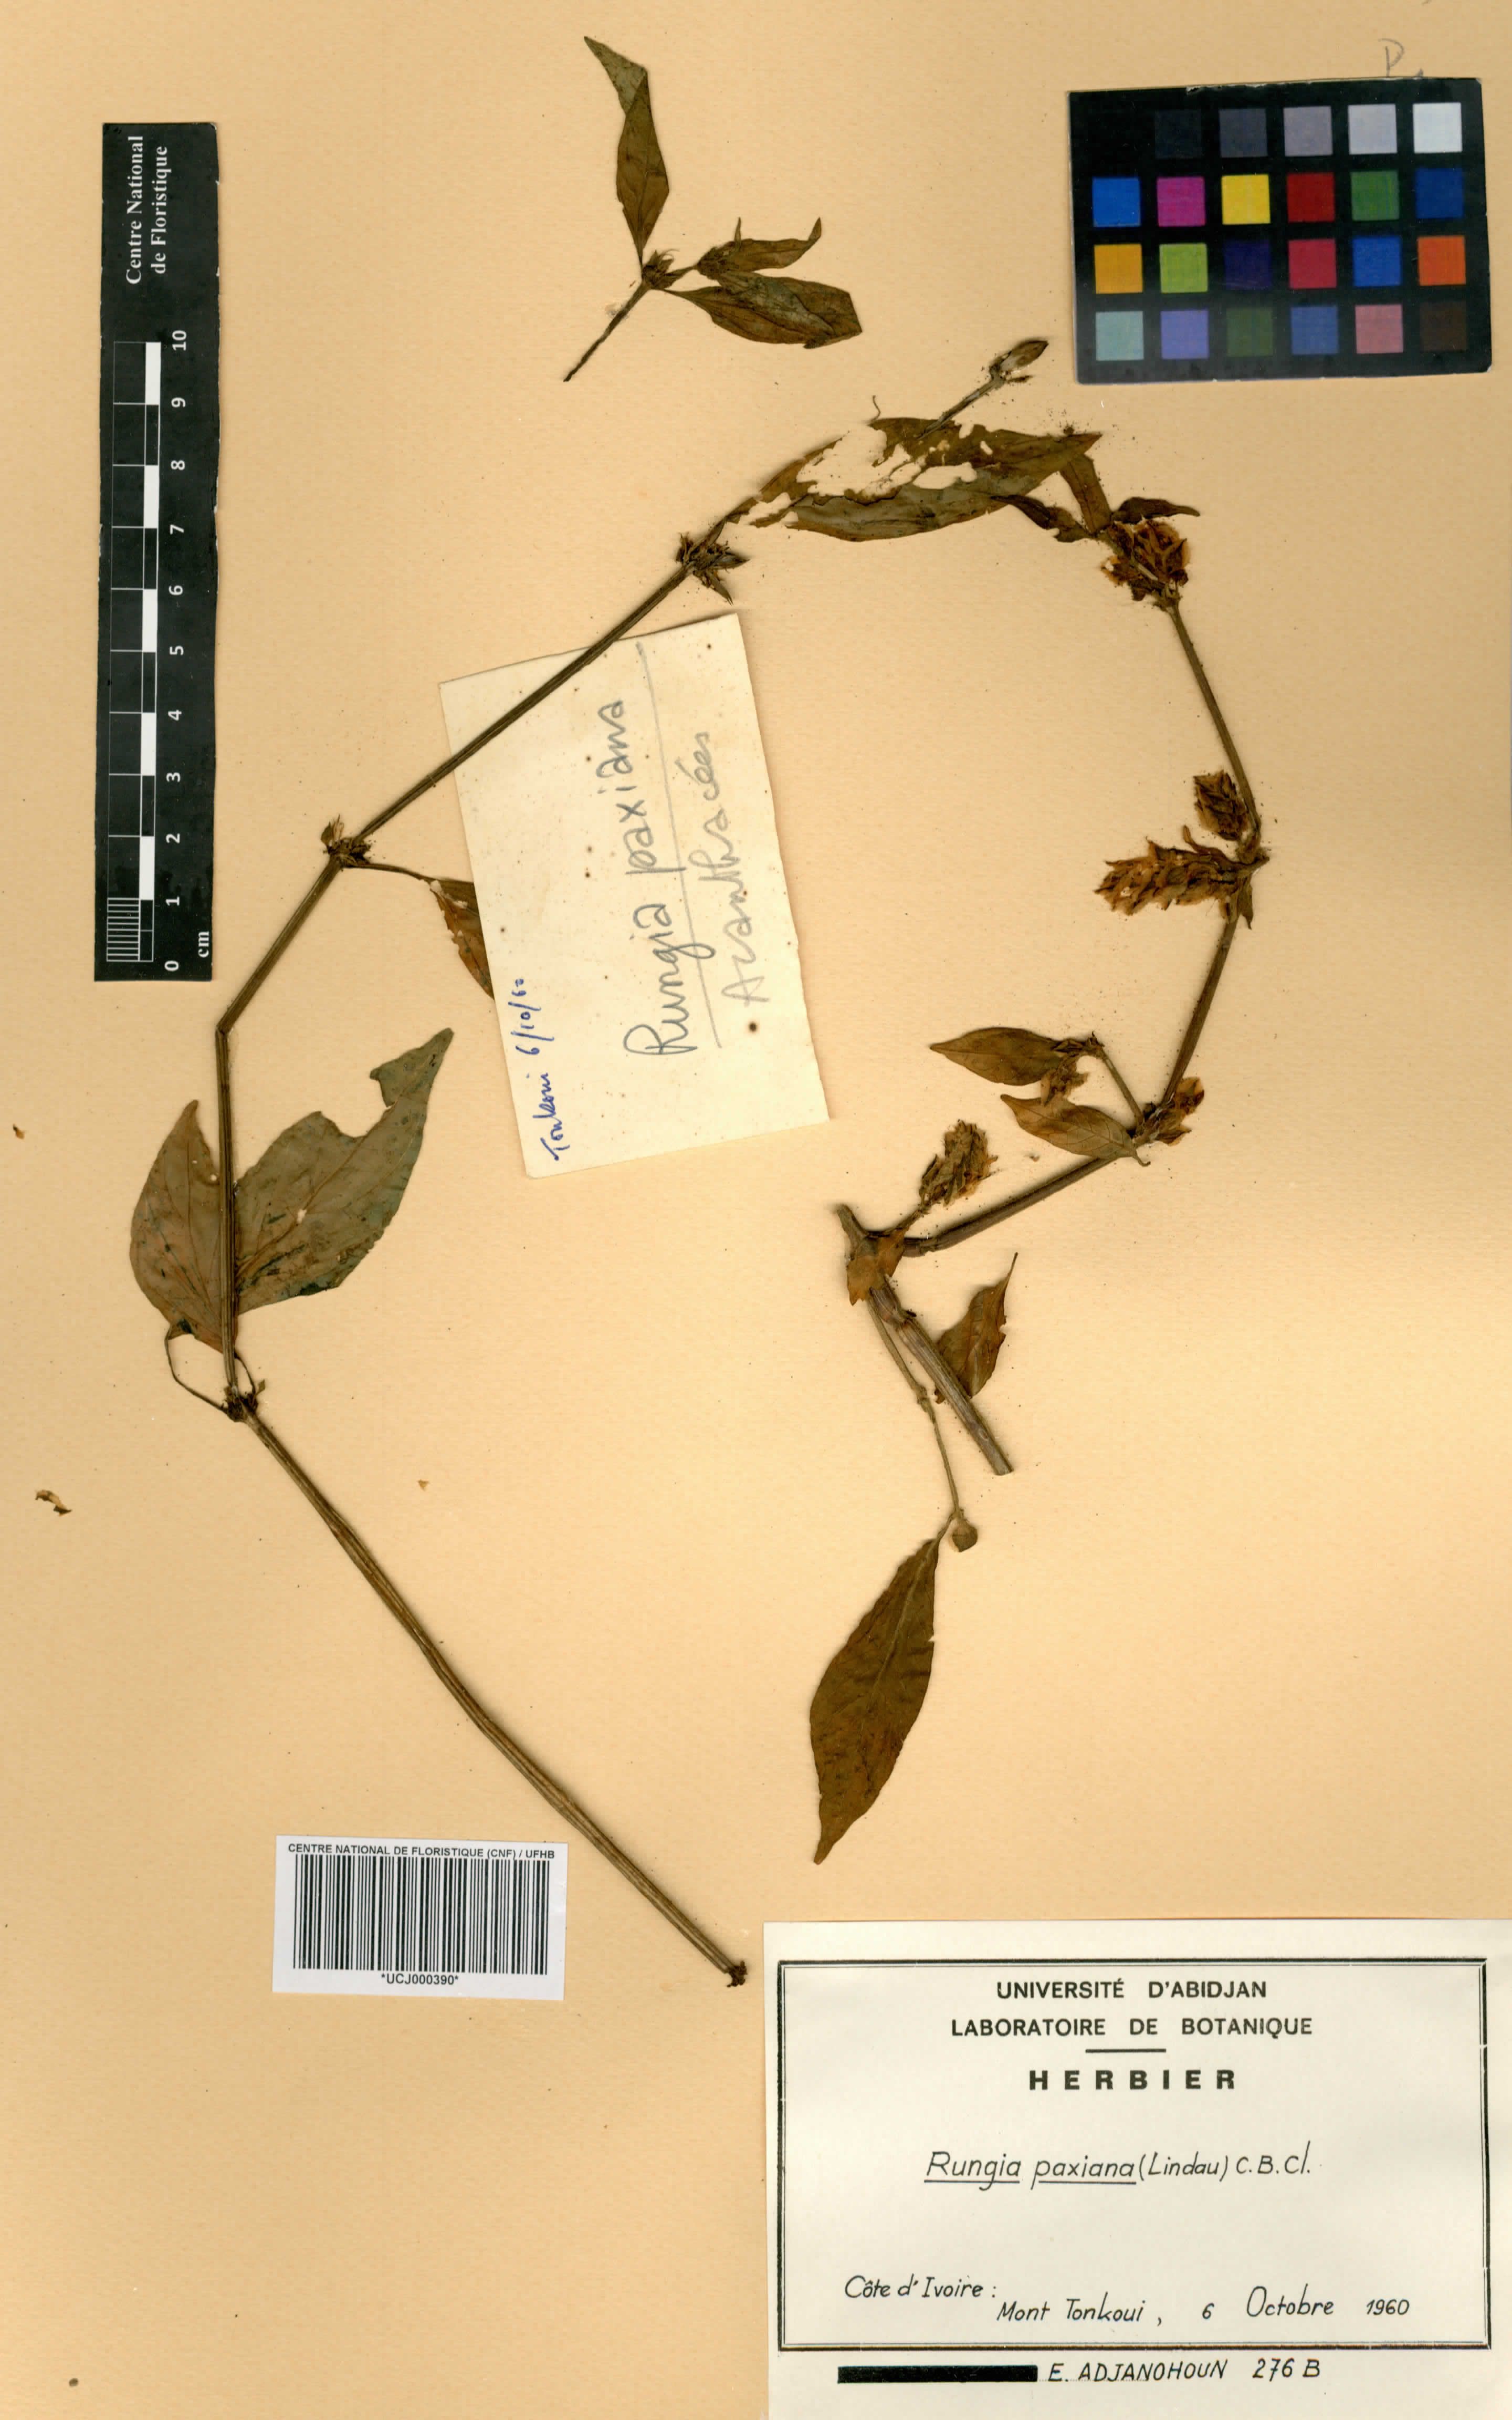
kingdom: Plantae
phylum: Tracheophyta
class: Magnoliopsida
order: Lamiales
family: Acanthaceae
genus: Rungia
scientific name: Rungia paxiana
